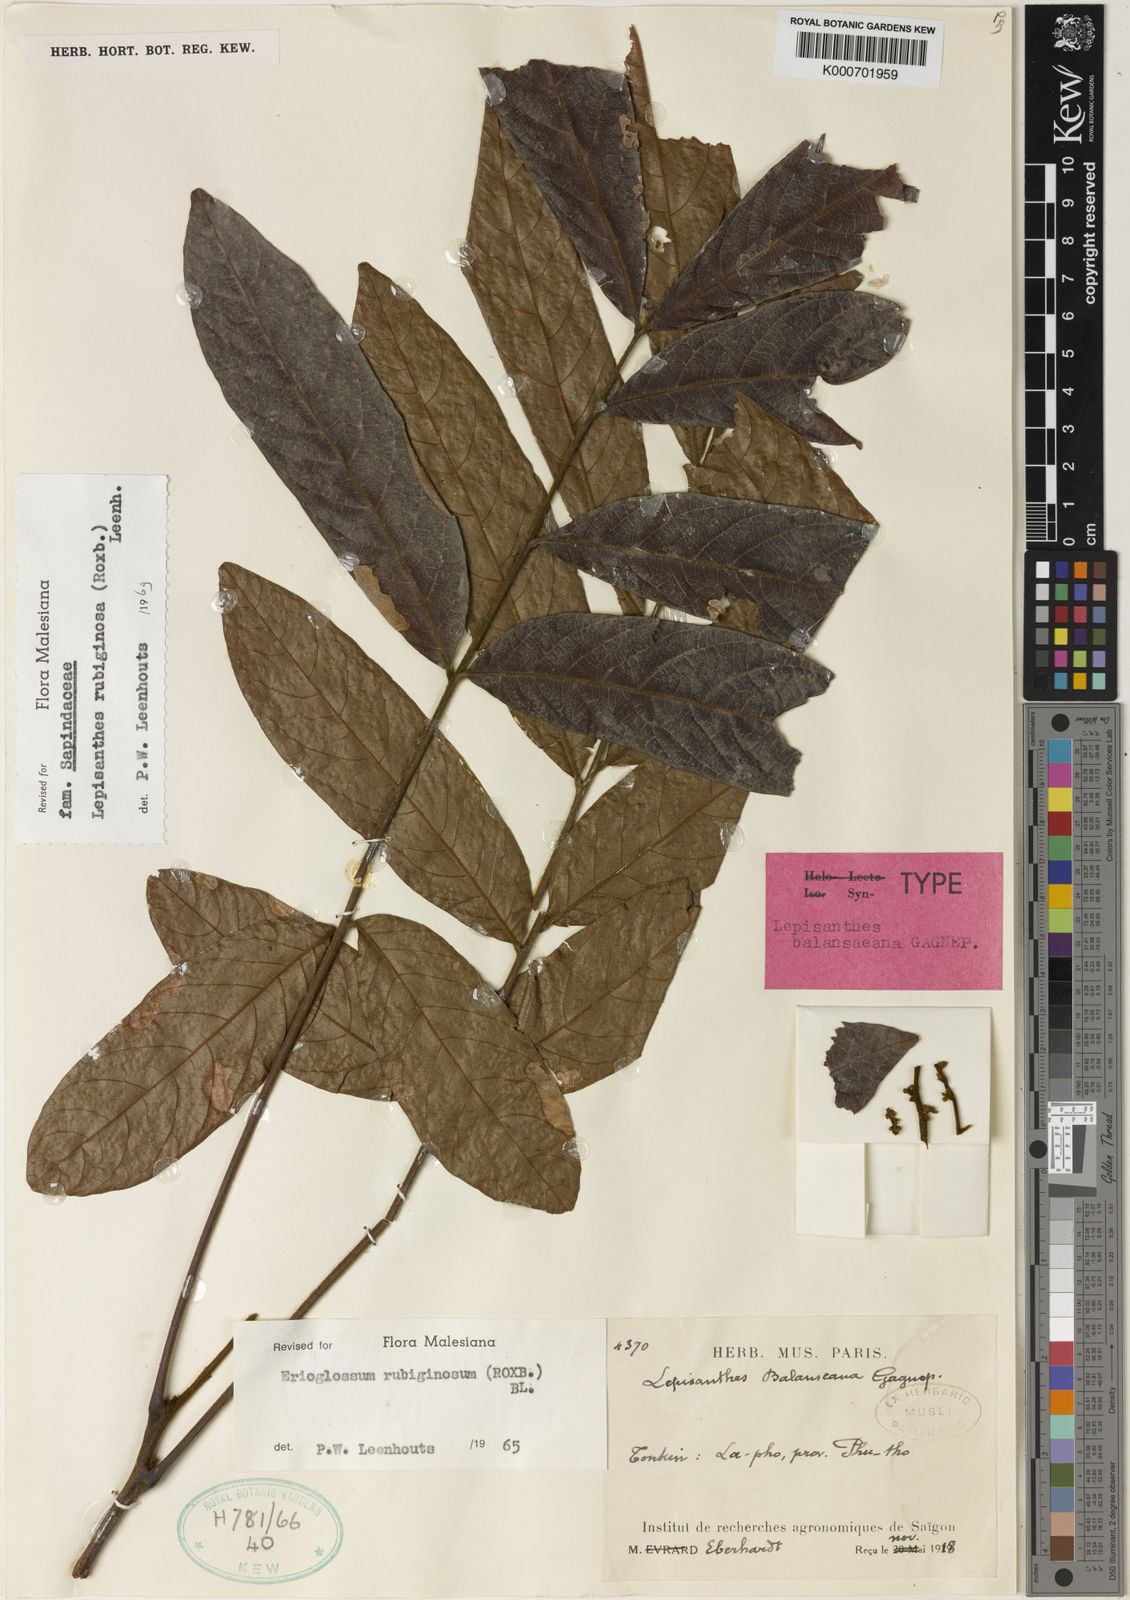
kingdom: Plantae
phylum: Tracheophyta
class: Magnoliopsida
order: Sapindales
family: Sapindaceae
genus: Lepisanthes
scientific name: Lepisanthes rubiginosa
